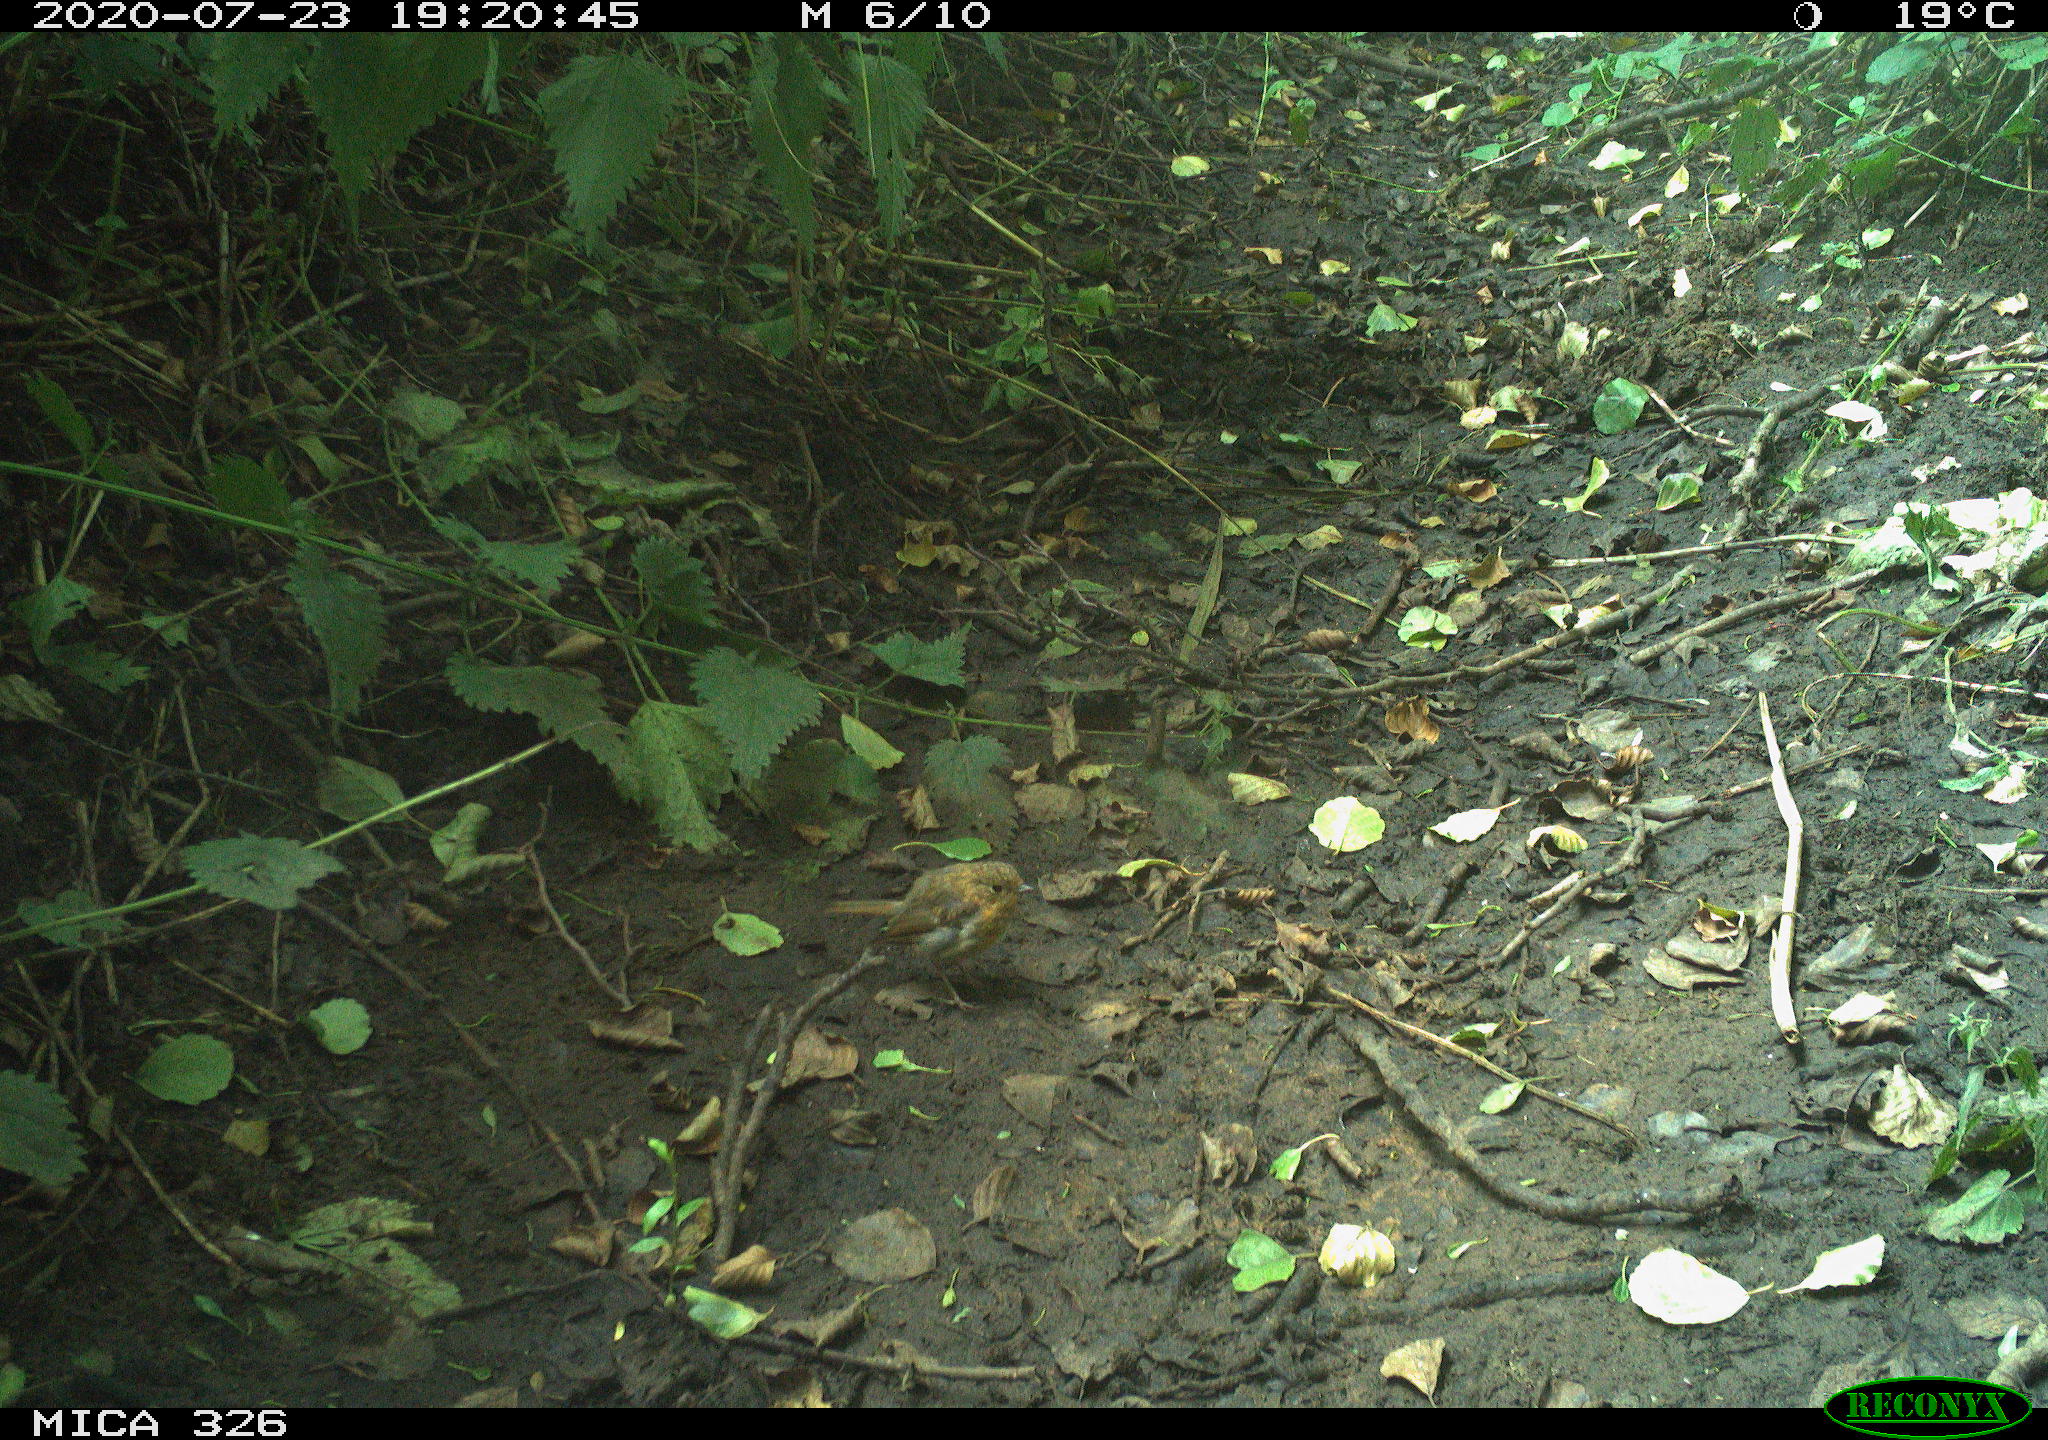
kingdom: Animalia
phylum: Chordata
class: Aves
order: Passeriformes
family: Muscicapidae
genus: Erithacus
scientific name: Erithacus rubecula
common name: European robin
